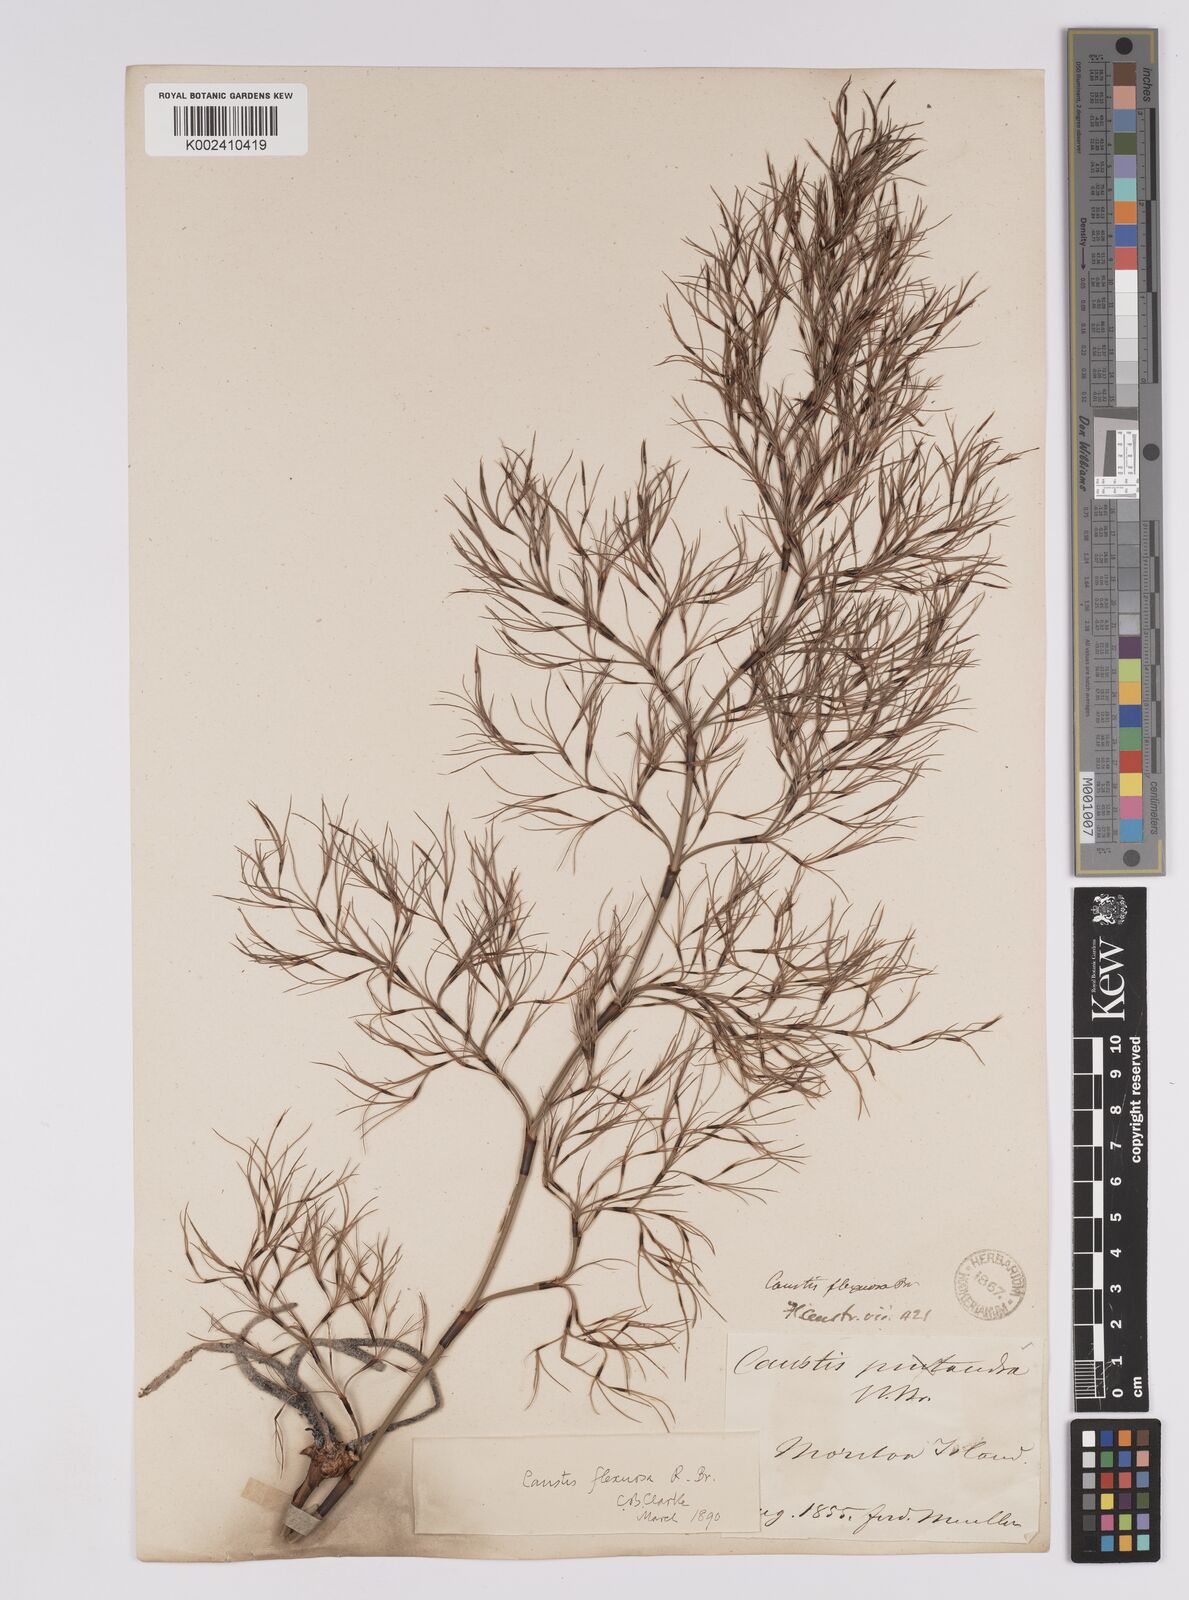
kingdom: Plantae
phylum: Tracheophyta
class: Liliopsida
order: Poales
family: Cyperaceae
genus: Caustis
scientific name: Caustis flexuosa
